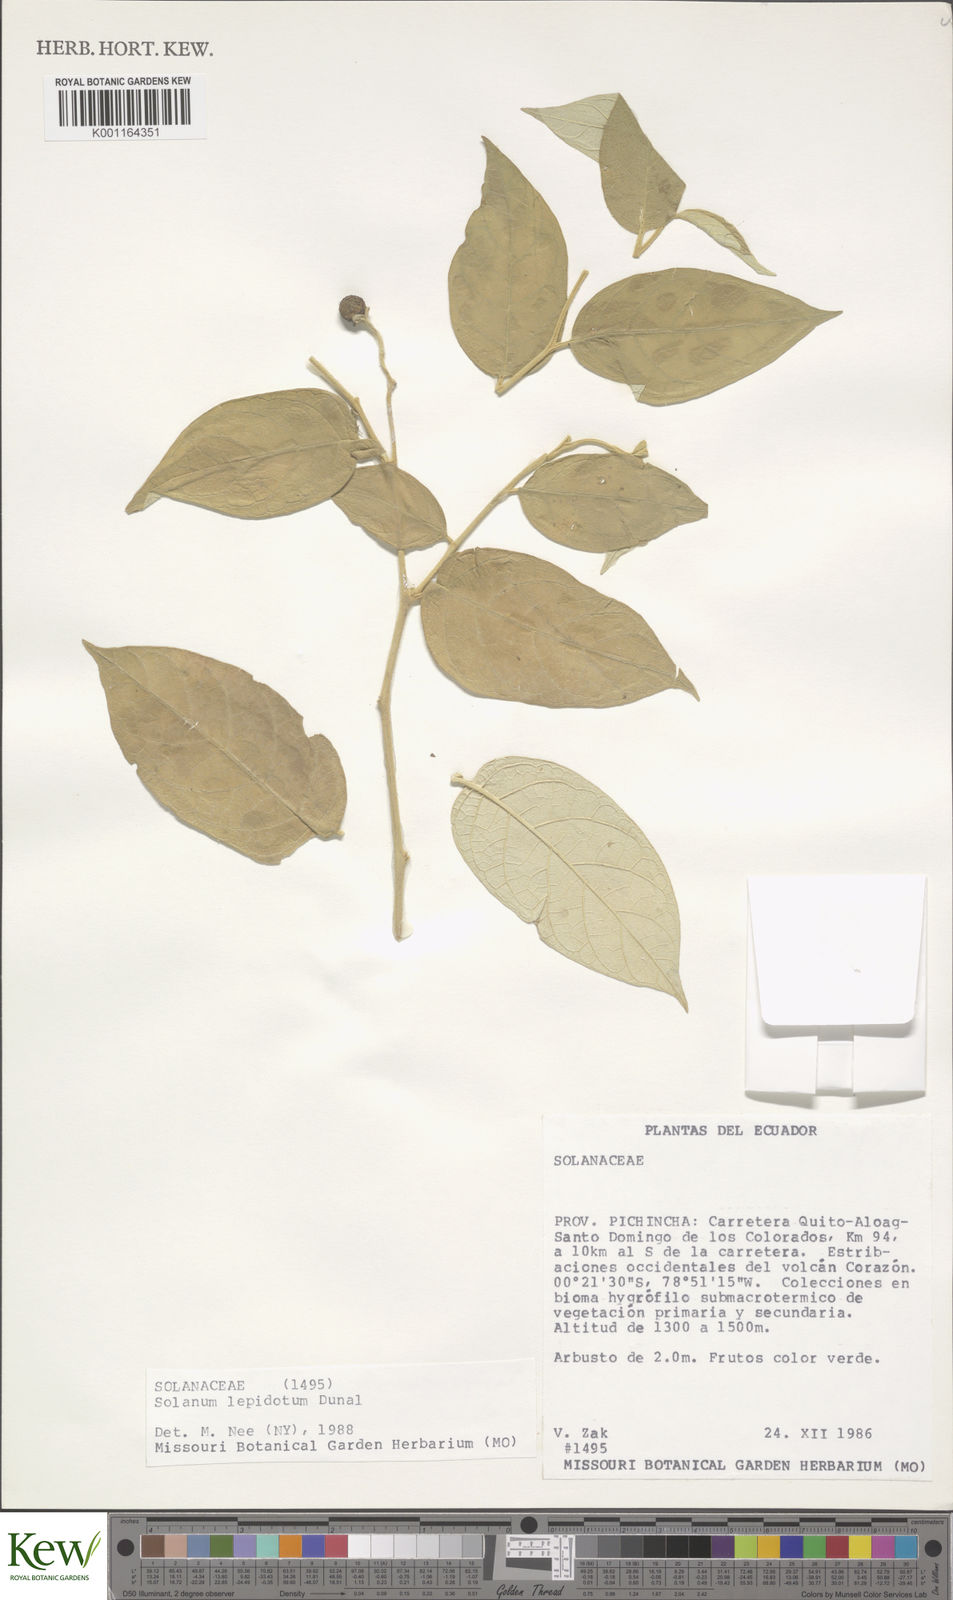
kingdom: Plantae
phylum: Tracheophyta
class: Magnoliopsida
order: Solanales
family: Solanaceae
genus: Solanum
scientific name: Solanum lepidotum
